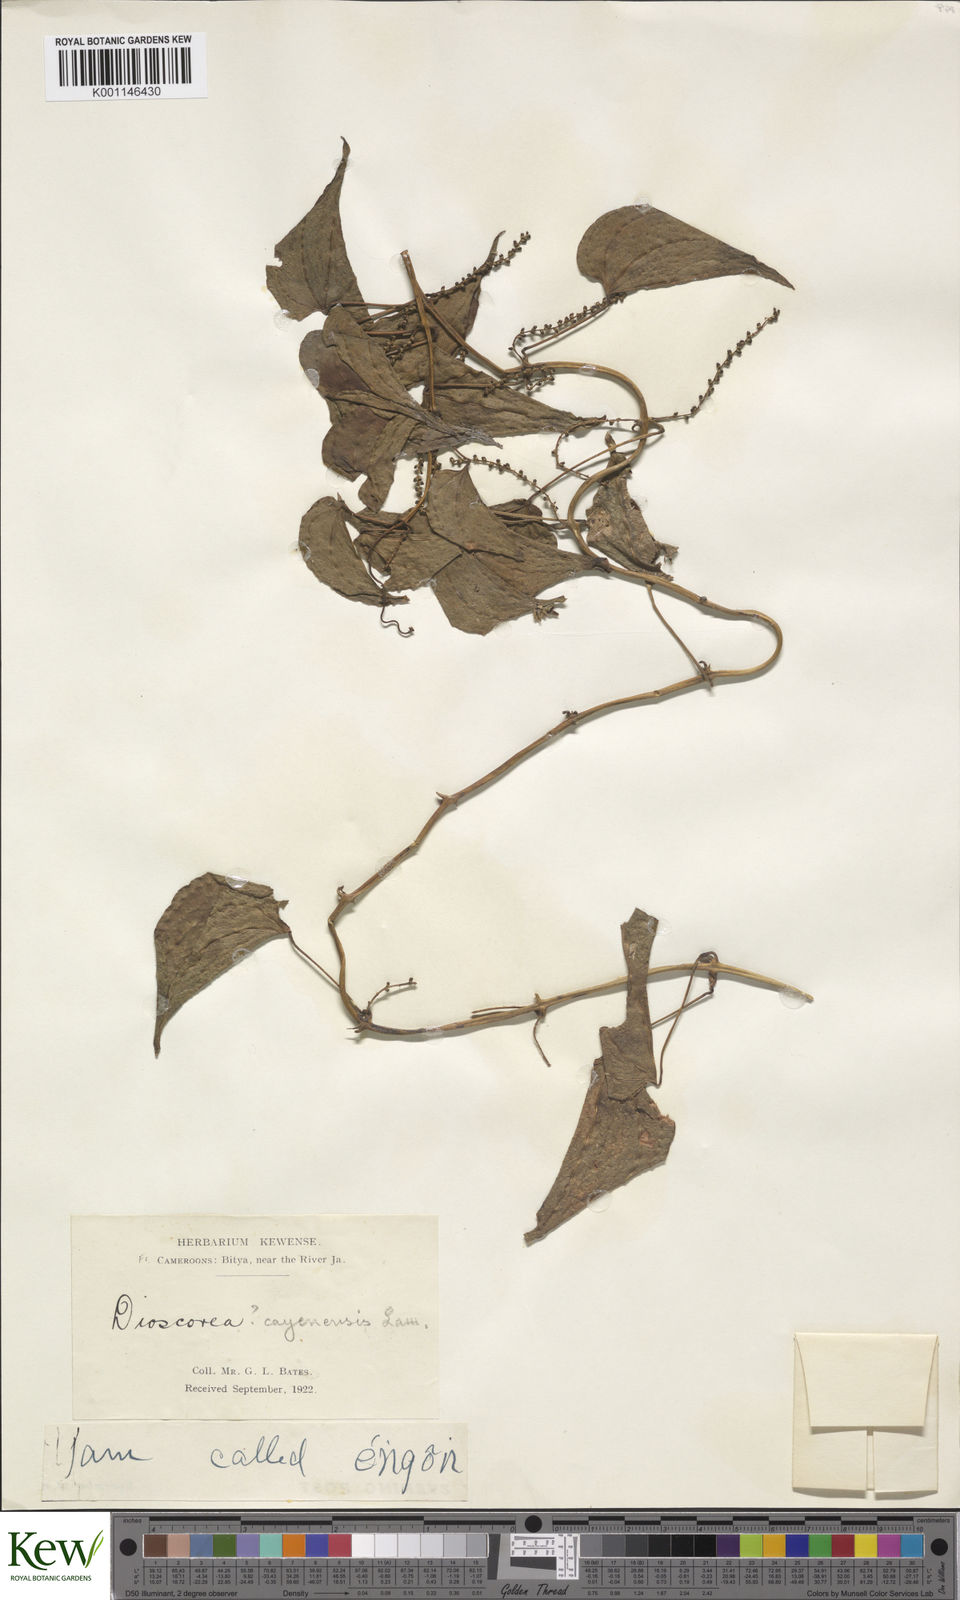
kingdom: Plantae
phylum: Tracheophyta
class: Liliopsida
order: Dioscoreales
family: Dioscoreaceae
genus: Dioscorea
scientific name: Dioscorea cayenensis
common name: Attoto yam
